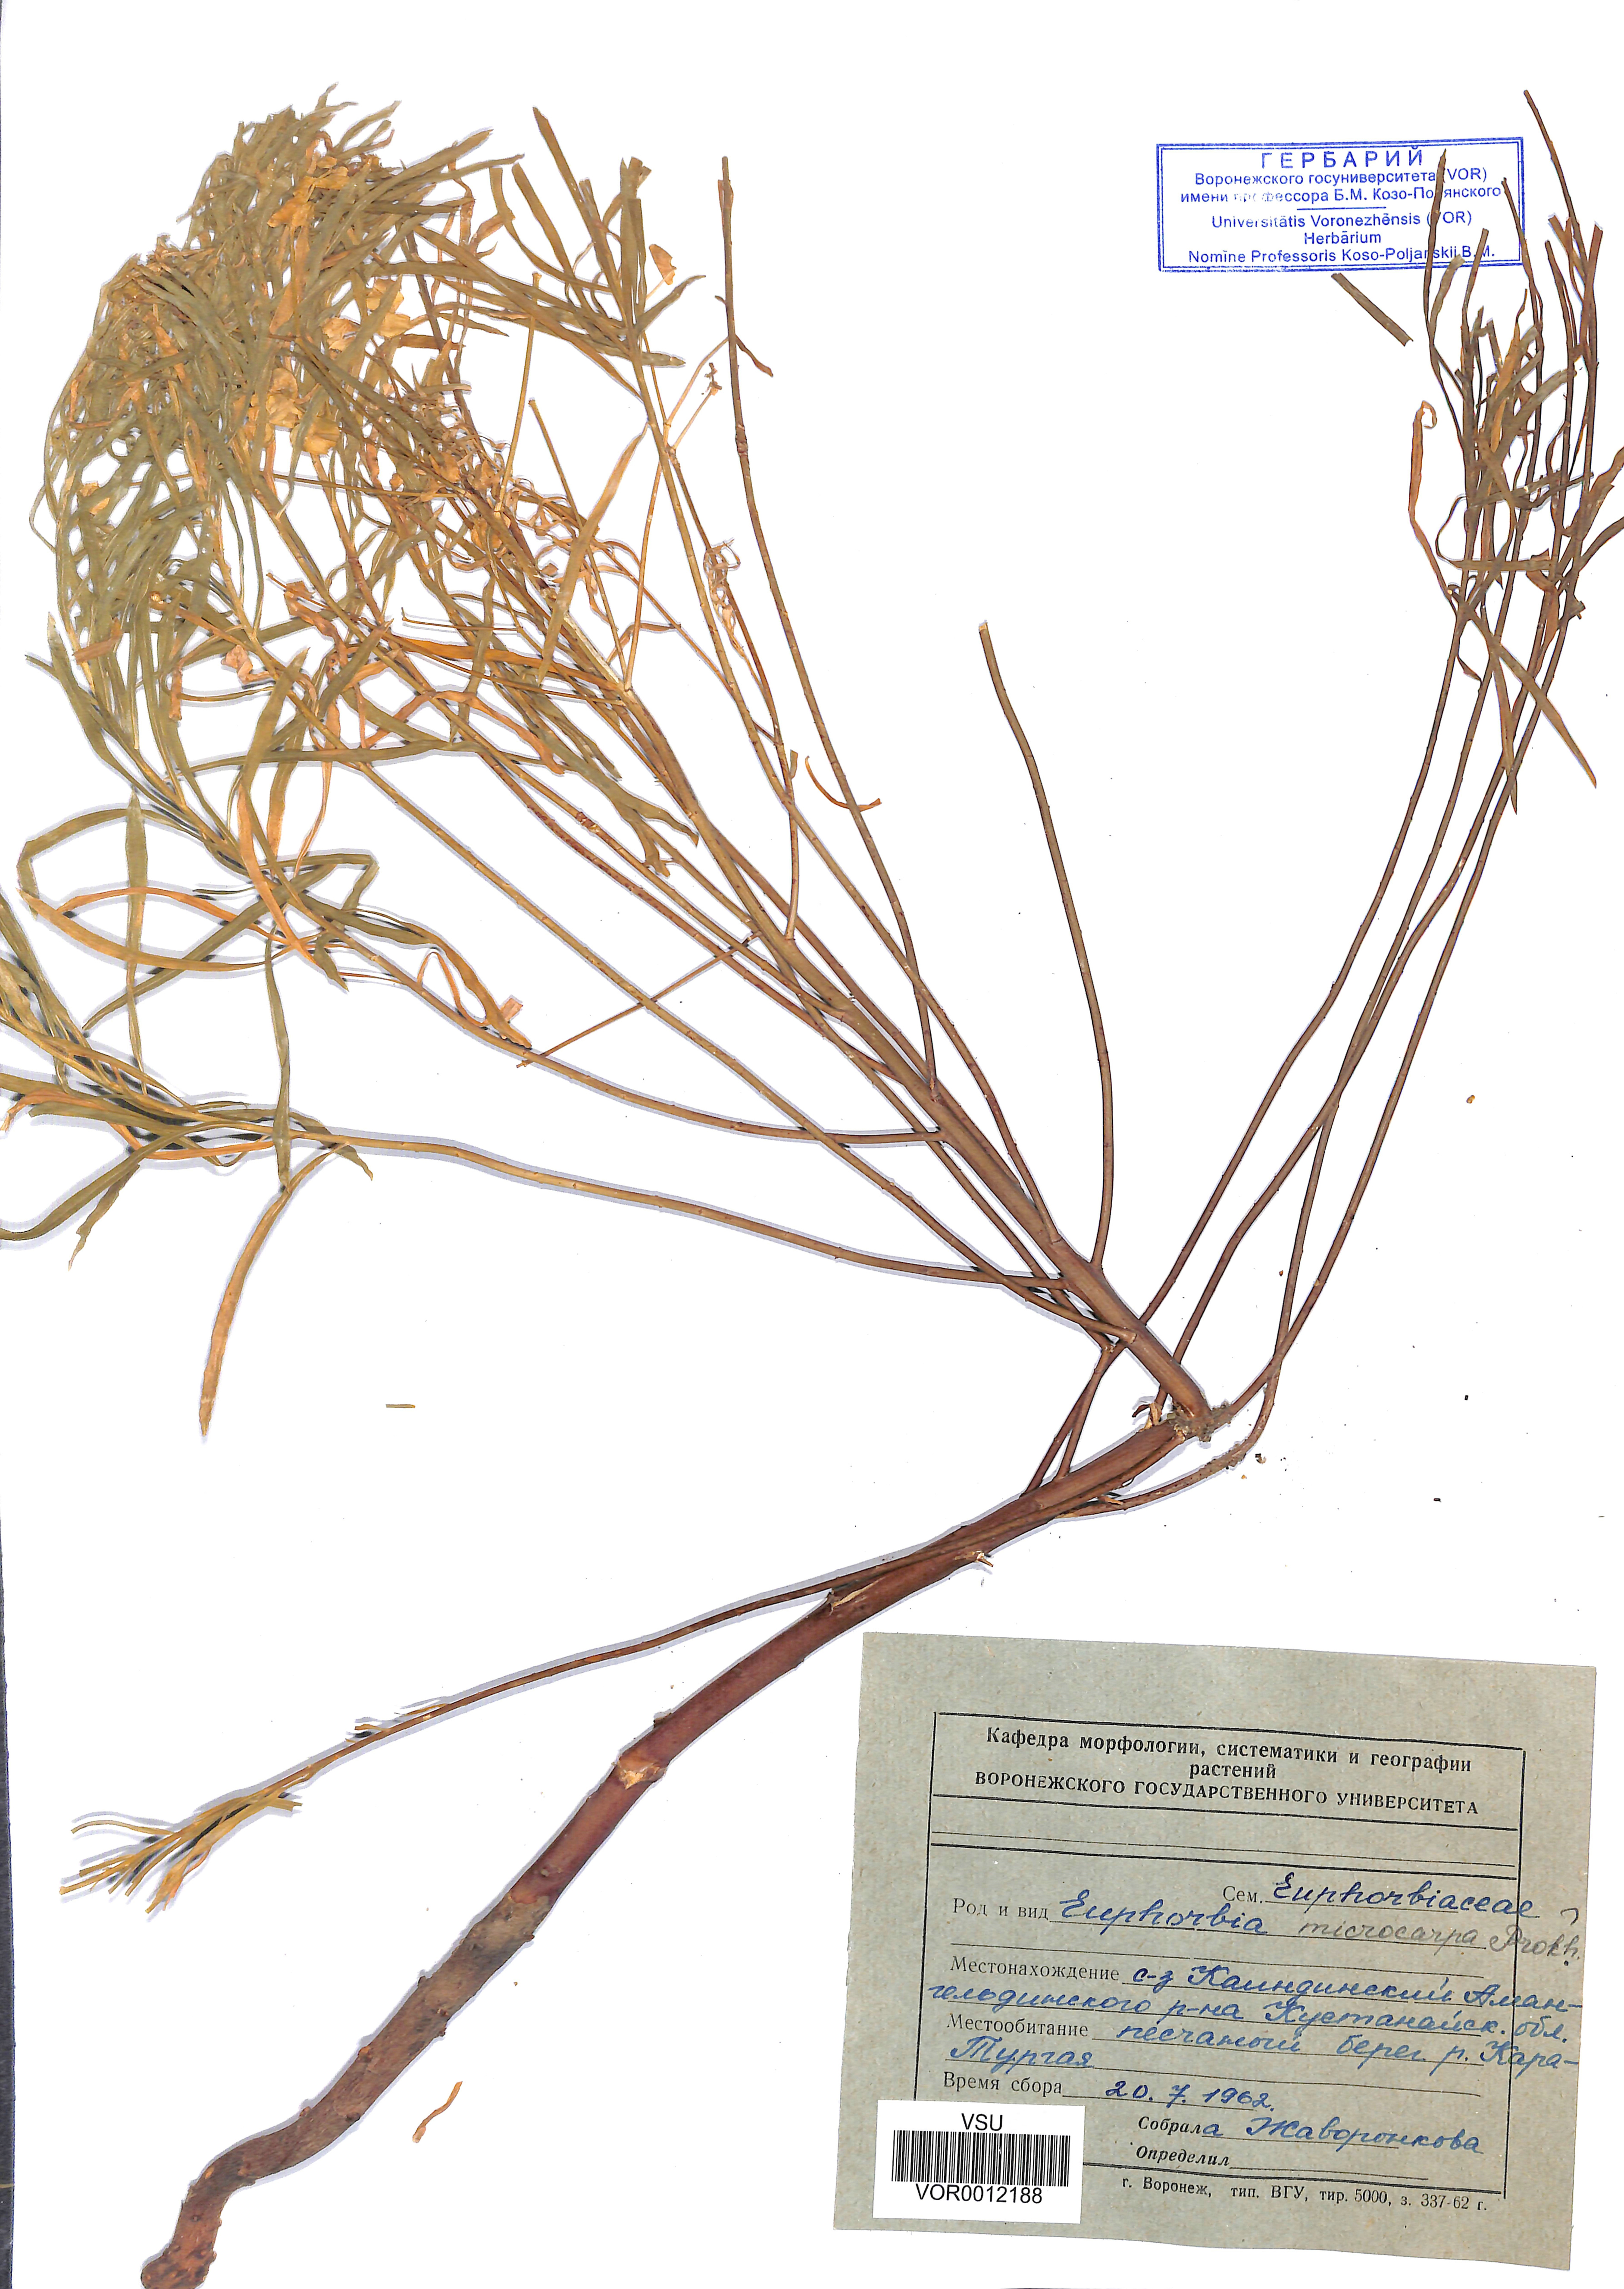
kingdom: Plantae
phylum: Tracheophyta
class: Magnoliopsida
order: Malpighiales
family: Euphorbiaceae
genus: Euphorbia
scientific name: Euphorbia macrocarpa
